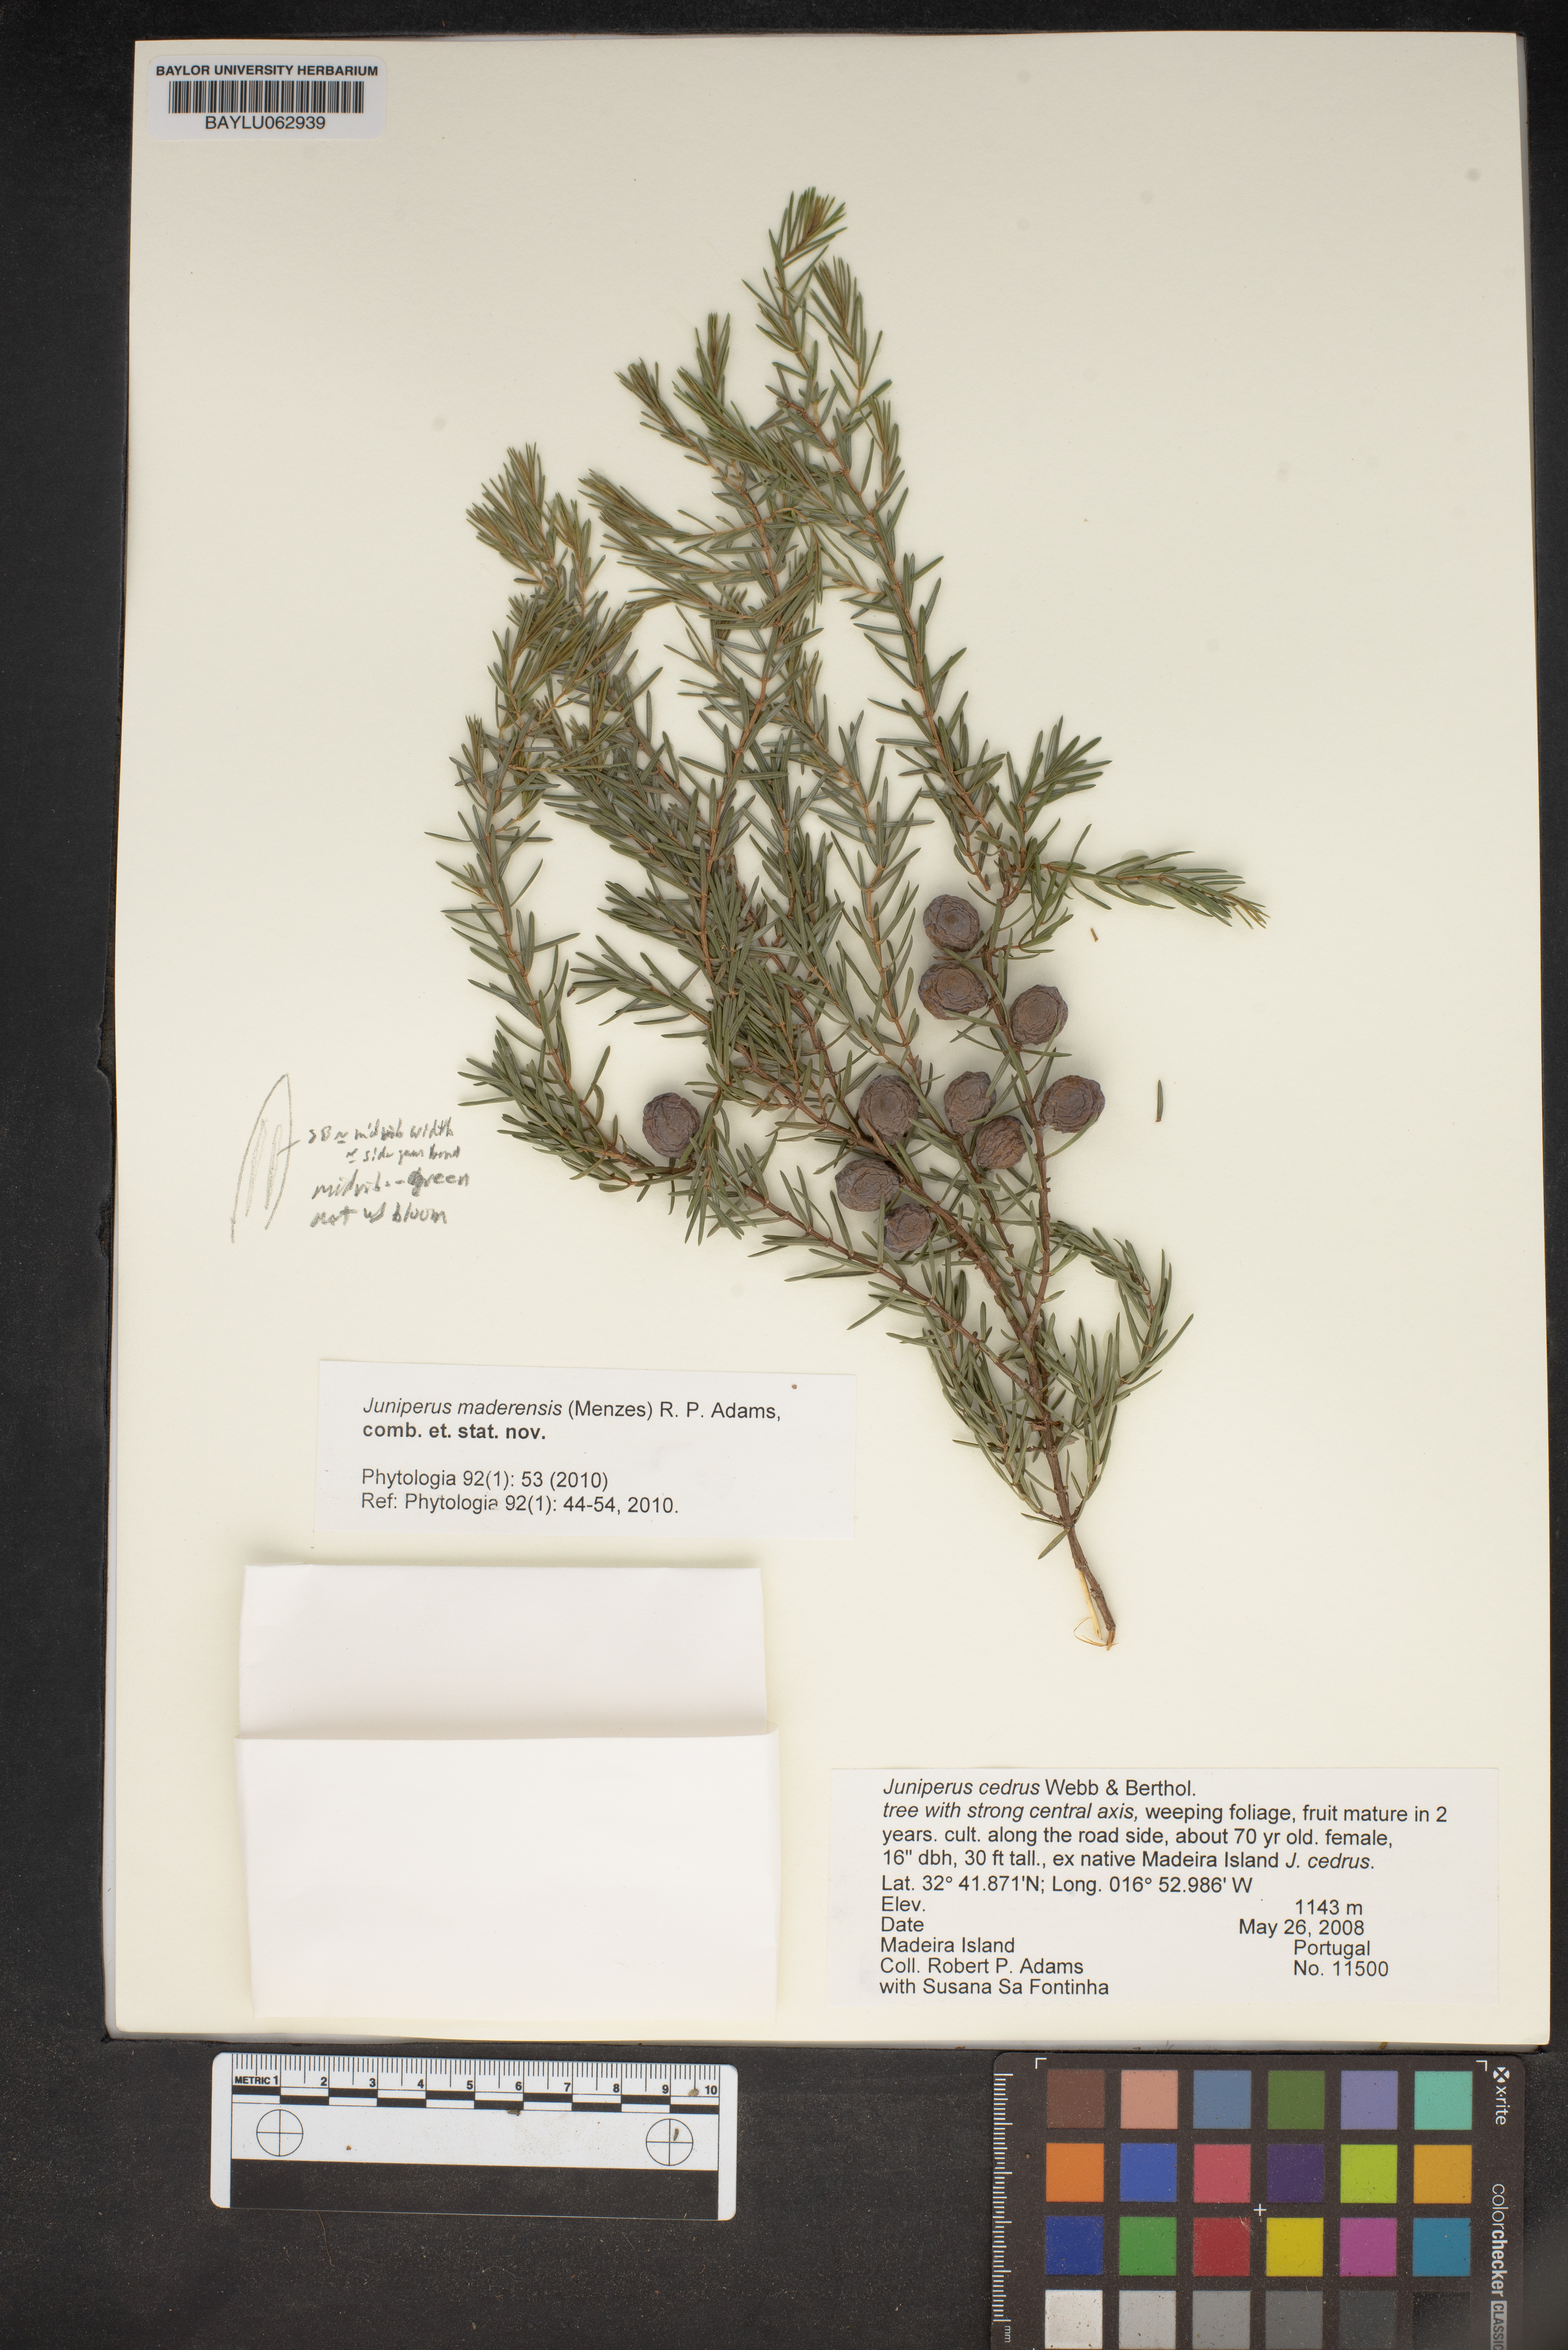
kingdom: Plantae
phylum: Tracheophyta
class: Pinopsida
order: Pinales
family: Cupressaceae
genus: Juniperus
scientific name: Juniperus cedrus
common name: Canary islands juniper
